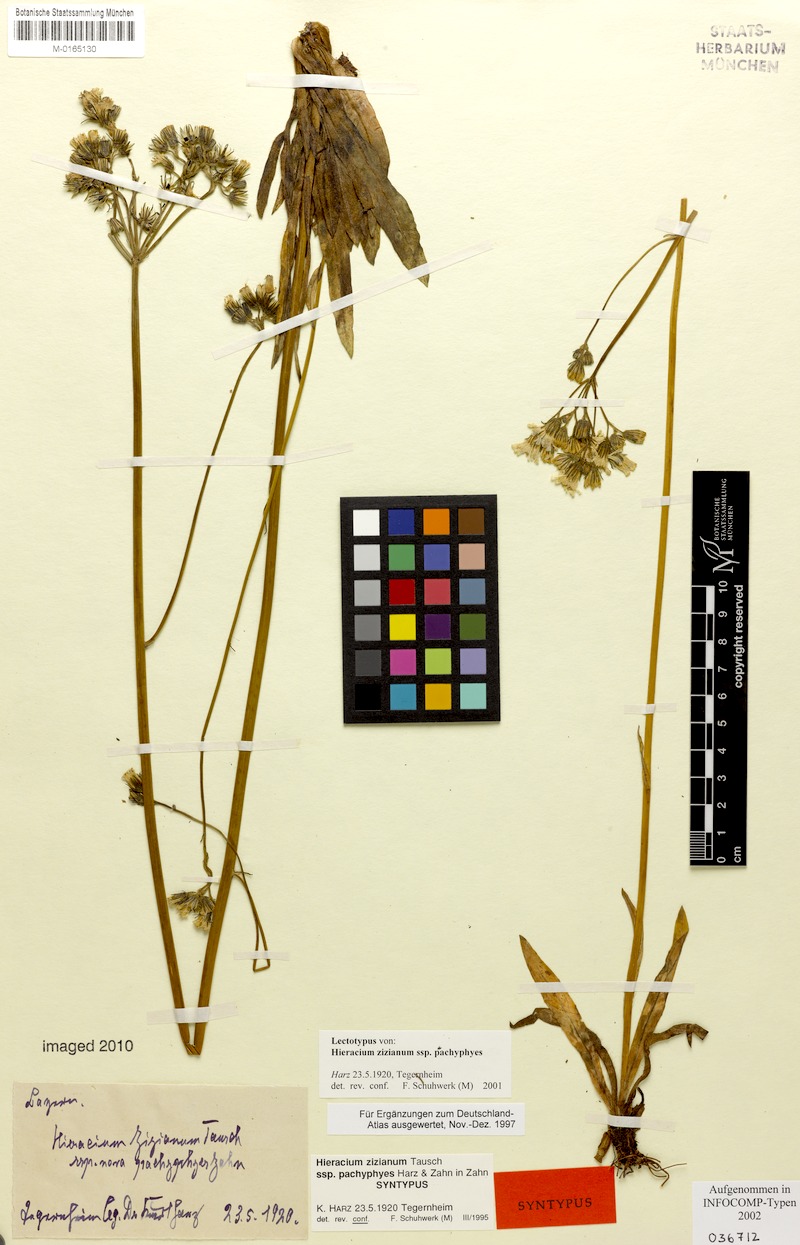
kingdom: Plantae
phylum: Tracheophyta
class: Magnoliopsida
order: Asterales
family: Asteraceae
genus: Pilosella
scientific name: Pilosella ziziana
